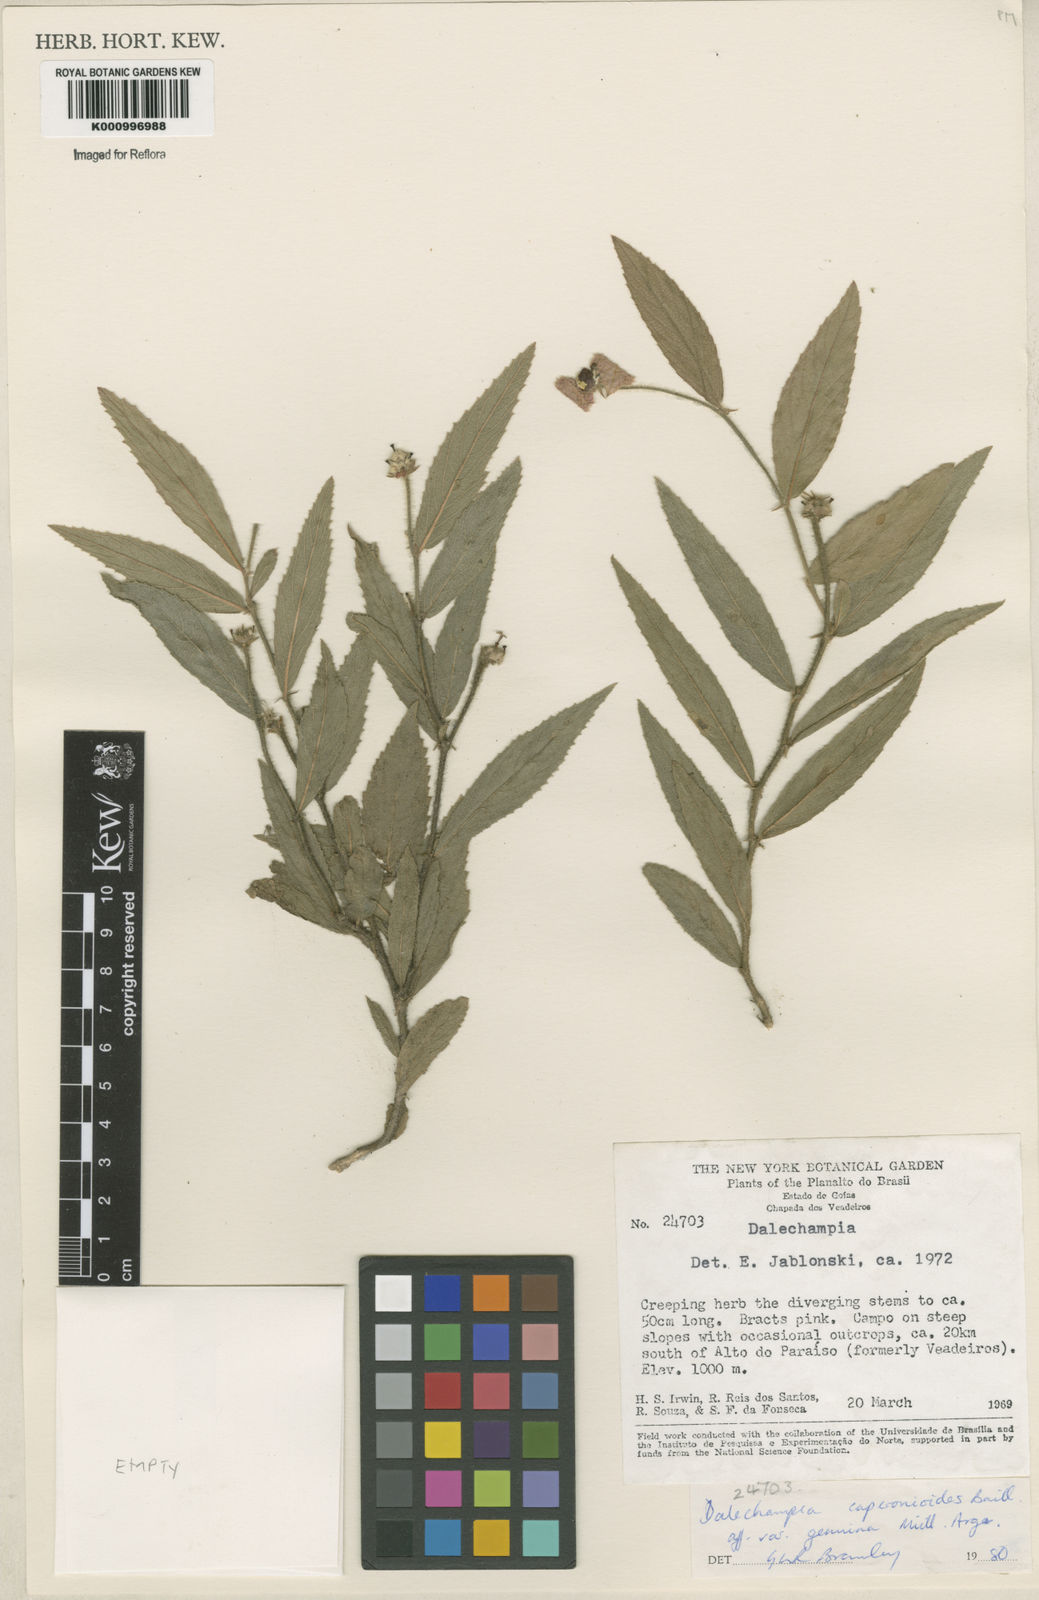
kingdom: Plantae
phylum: Tracheophyta
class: Magnoliopsida
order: Malpighiales
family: Euphorbiaceae
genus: Dalechampia
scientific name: Dalechampia caperonioides
